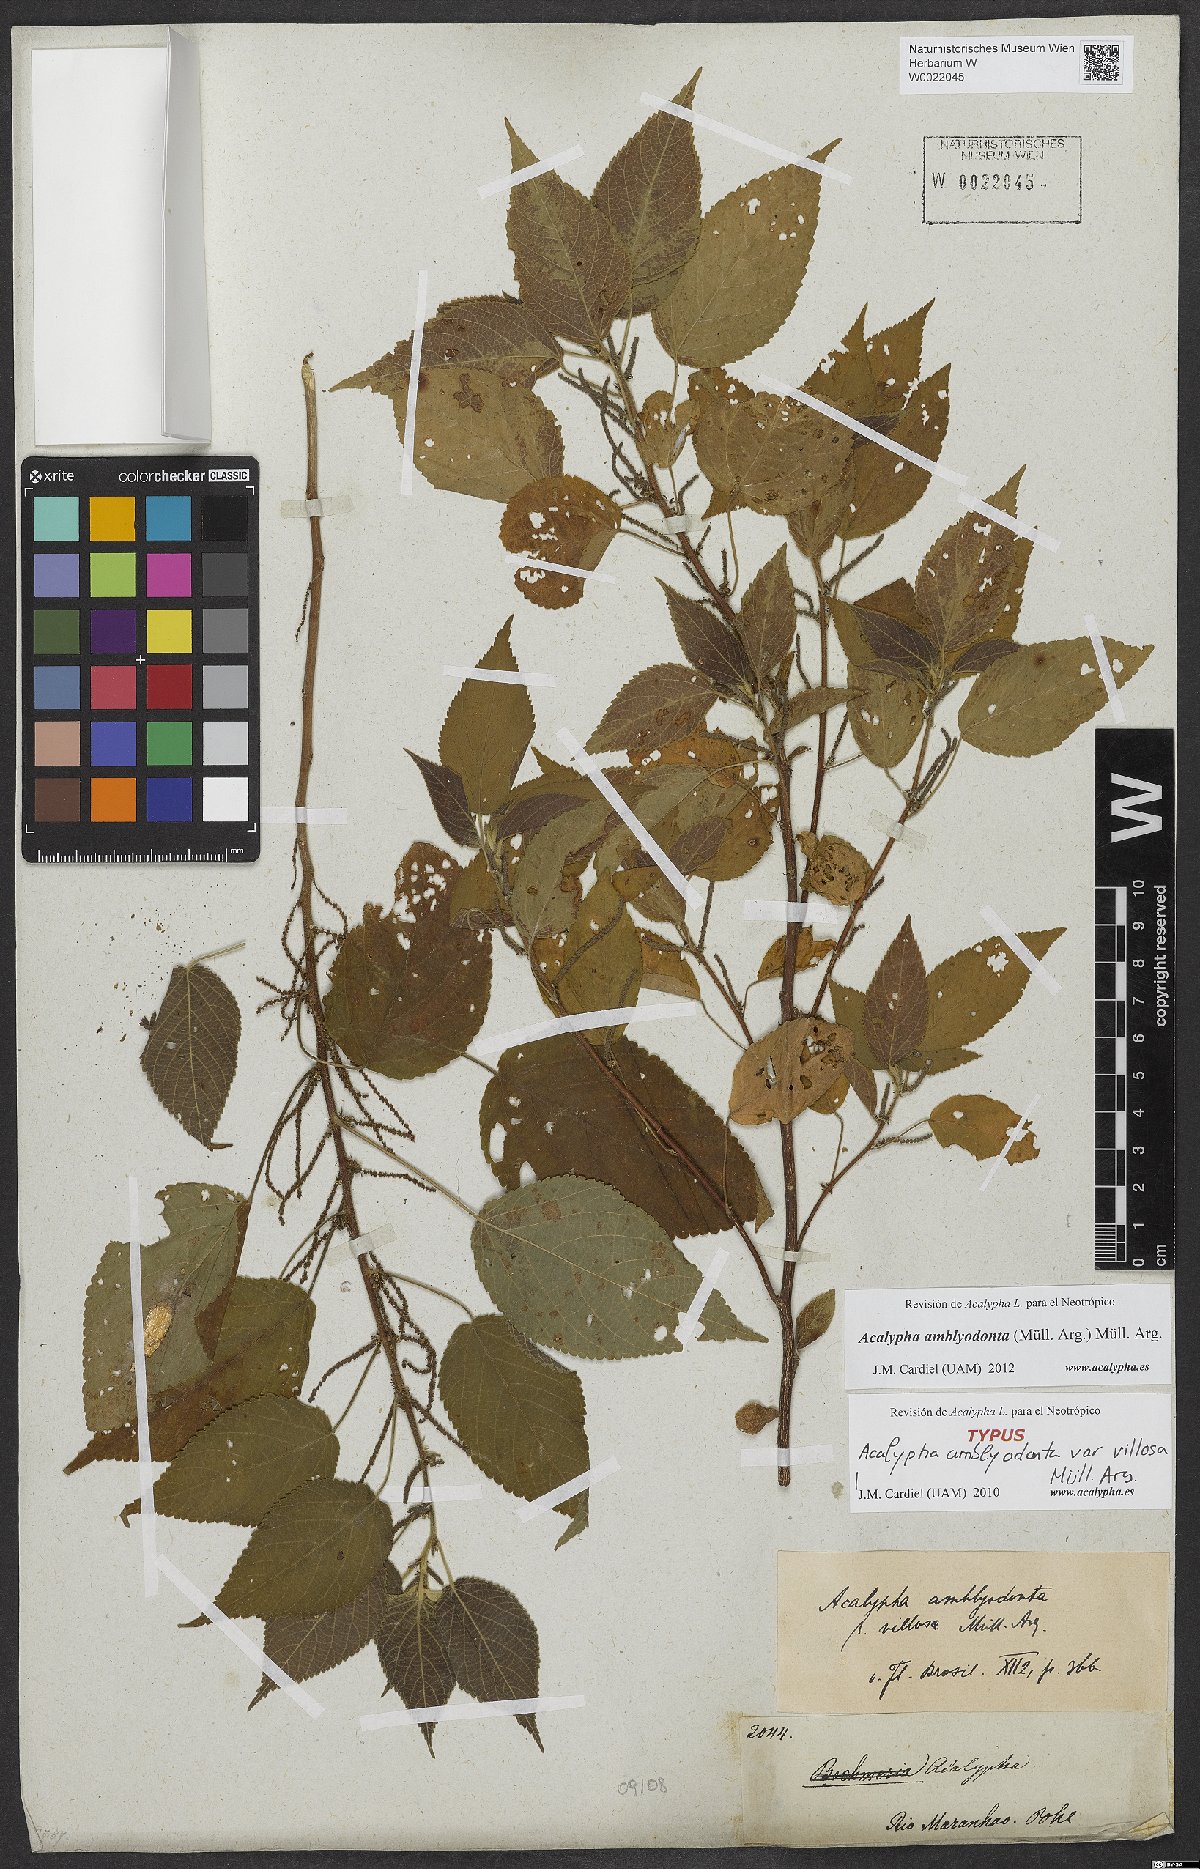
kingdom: Plantae
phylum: Tracheophyta
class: Magnoliopsida
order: Malpighiales
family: Euphorbiaceae
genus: Acalypha
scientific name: Acalypha amblyodonta
